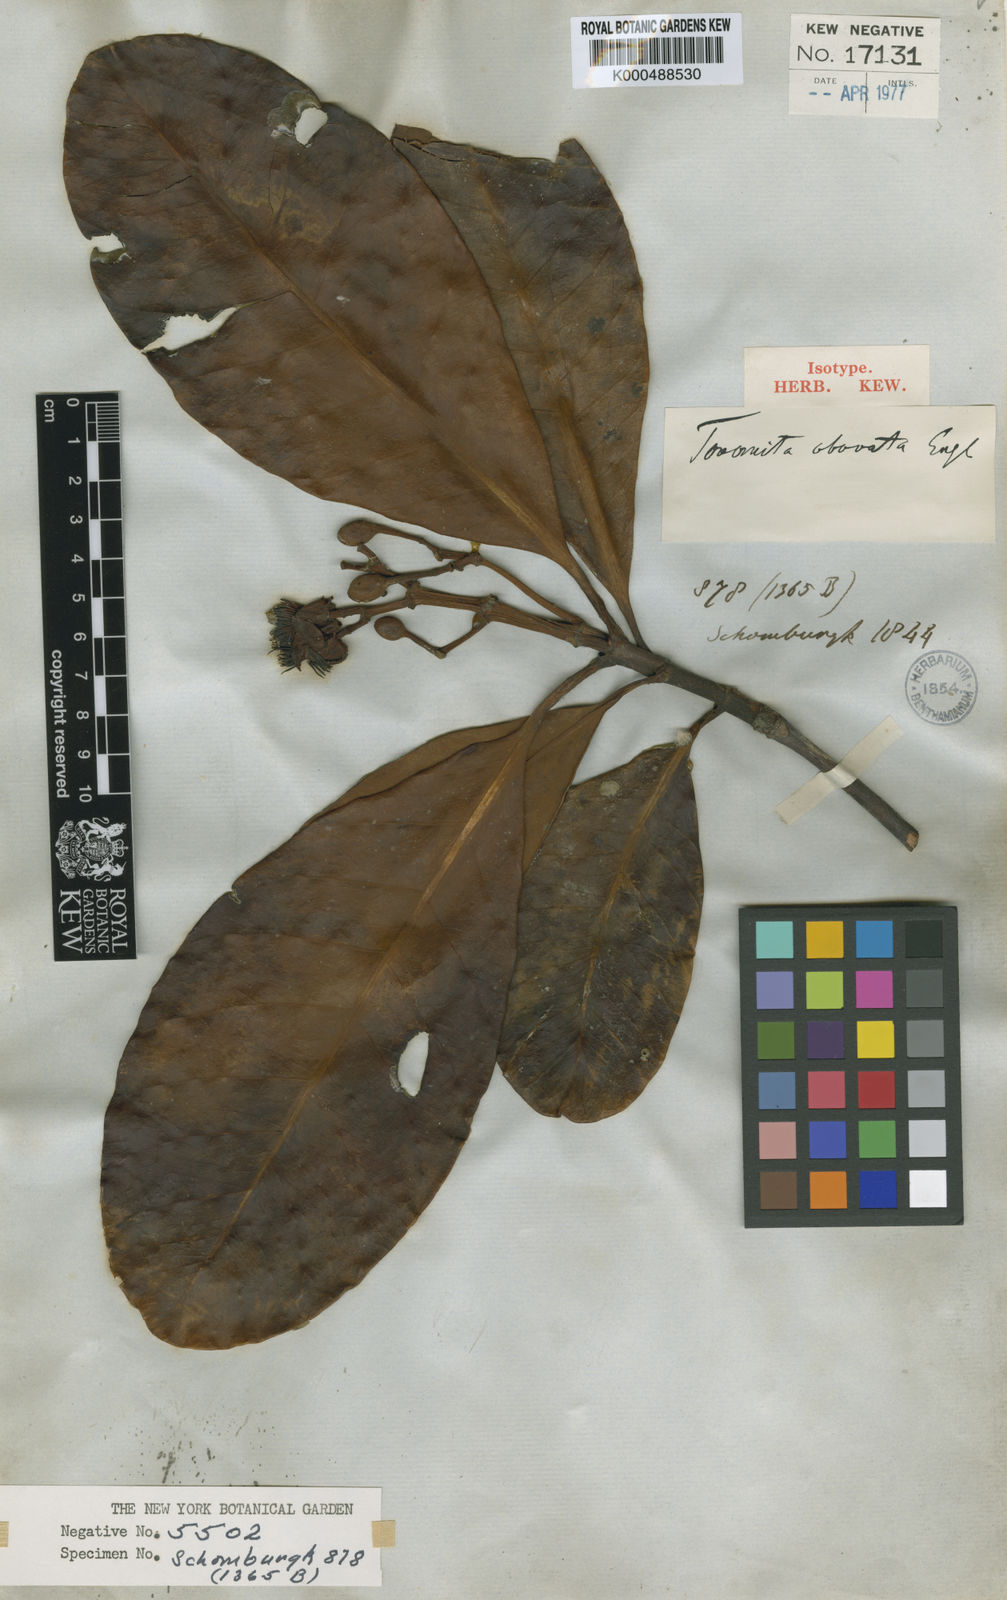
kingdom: Plantae
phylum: Tracheophyta
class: Magnoliopsida
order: Malpighiales
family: Clusiaceae
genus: Tovomita
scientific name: Tovomita obovata
